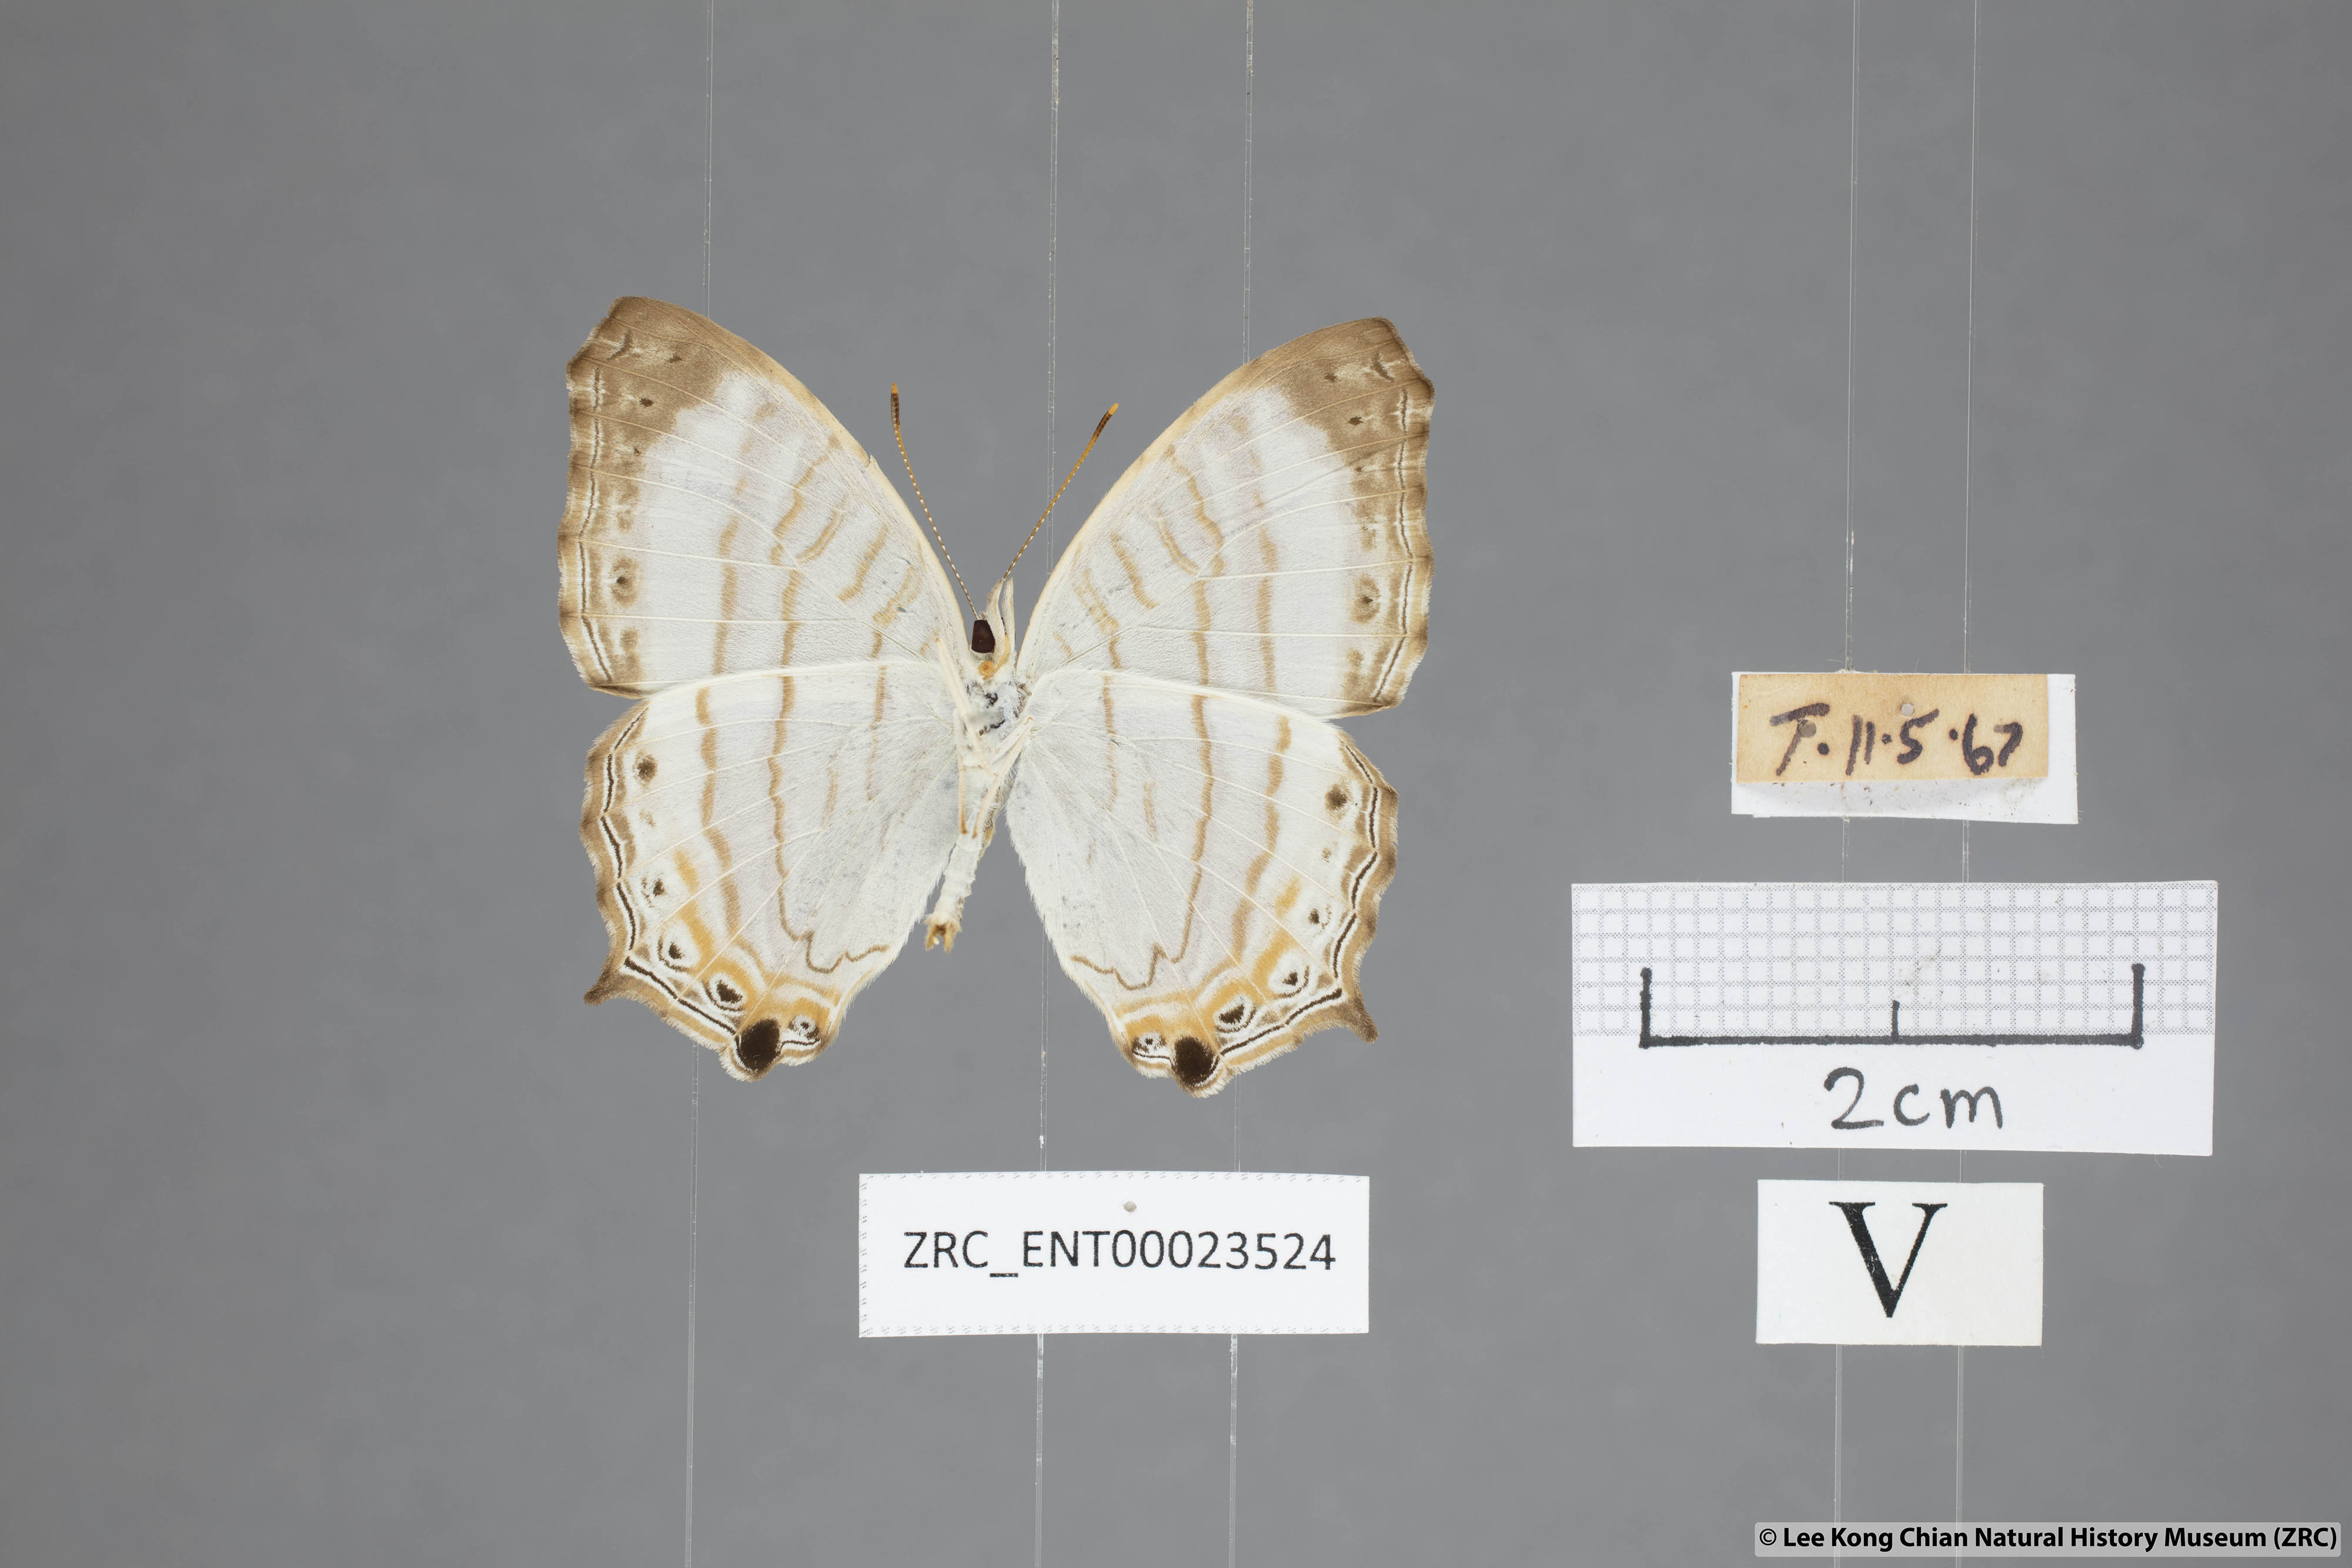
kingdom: Animalia
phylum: Arthropoda
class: Insecta
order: Lepidoptera
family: Nymphalidae
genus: Cyrestis
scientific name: Cyrestis themire
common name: Little mapwing
